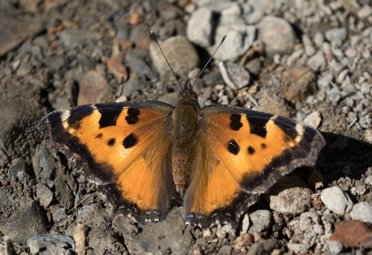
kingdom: Animalia
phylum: Arthropoda
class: Insecta
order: Lepidoptera
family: Nymphalidae
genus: Nymphalis
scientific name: Nymphalis californica
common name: California Tortoiseshell
